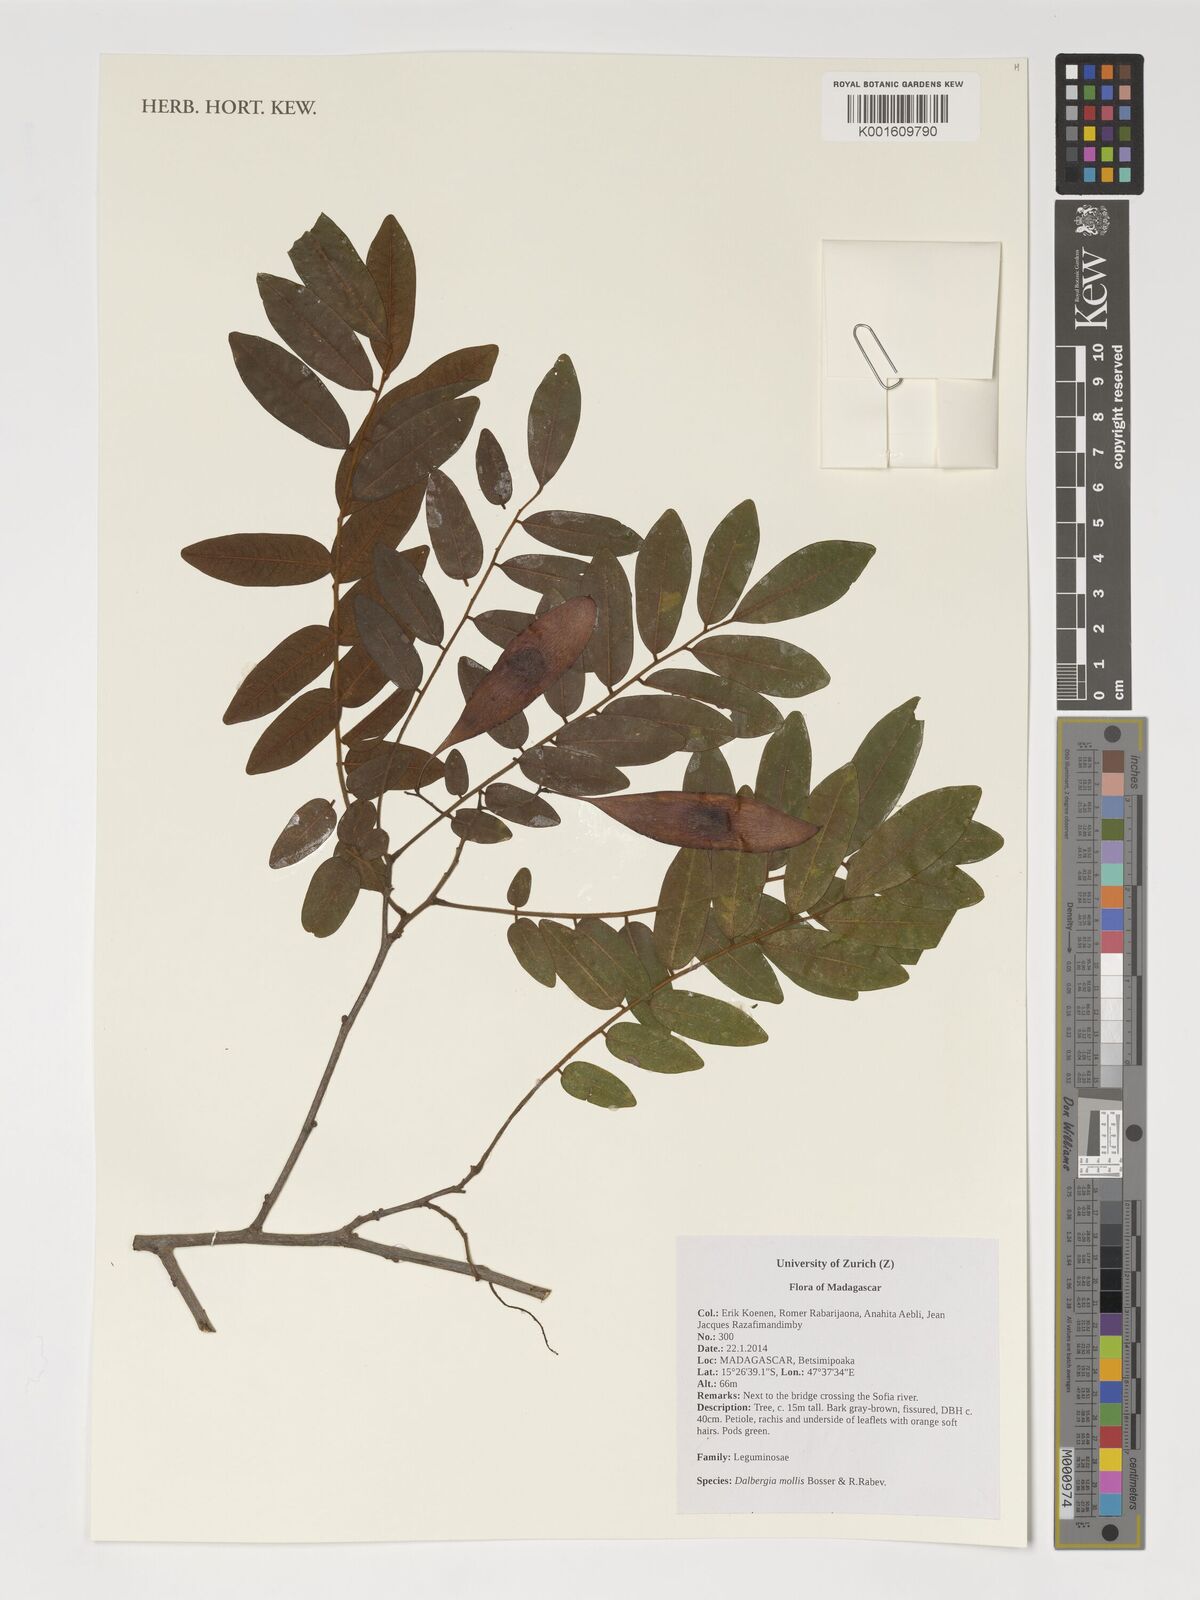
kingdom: Plantae
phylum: Tracheophyta
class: Magnoliopsida
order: Fabales
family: Fabaceae
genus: Dalbergia
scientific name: Dalbergia bemarivensis
